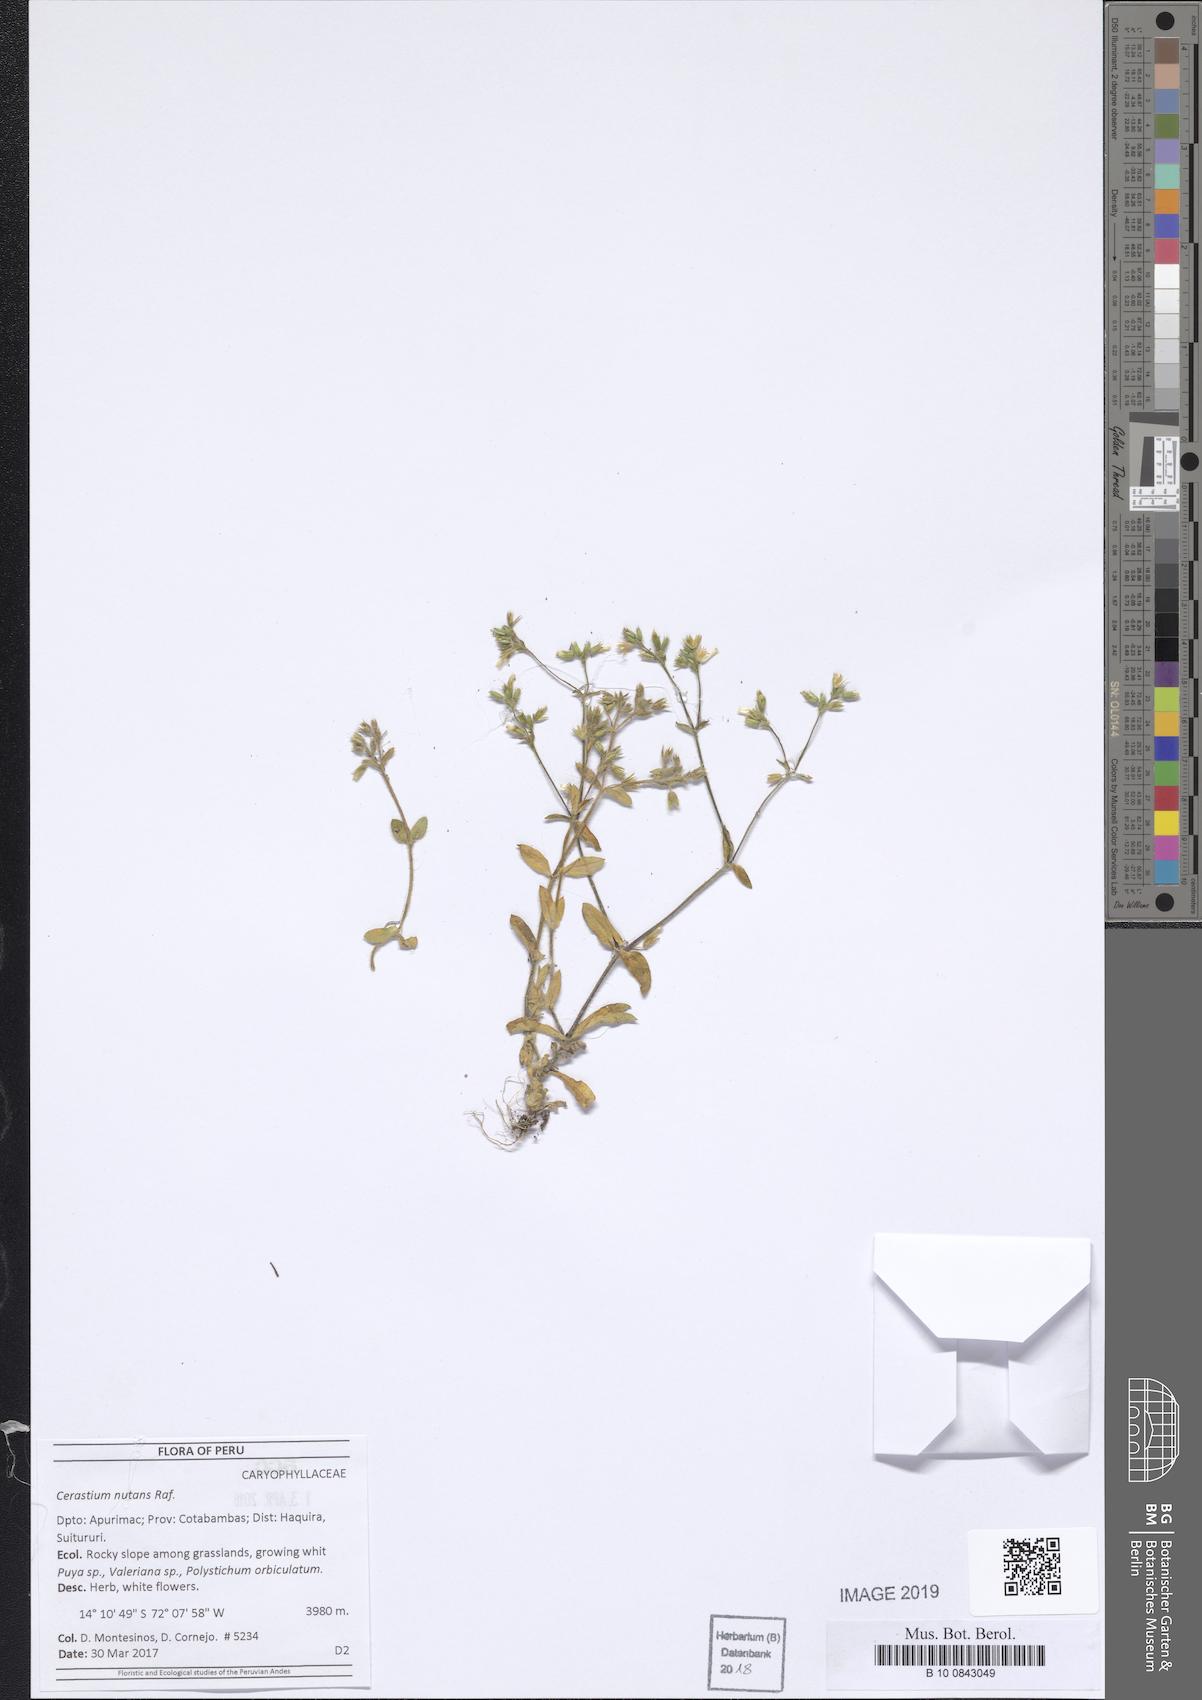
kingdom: Plantae
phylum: Tracheophyta
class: Magnoliopsida
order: Caryophyllales
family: Caryophyllaceae
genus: Cerastium
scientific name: Cerastium nutans
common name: Long-stalked chickweed
